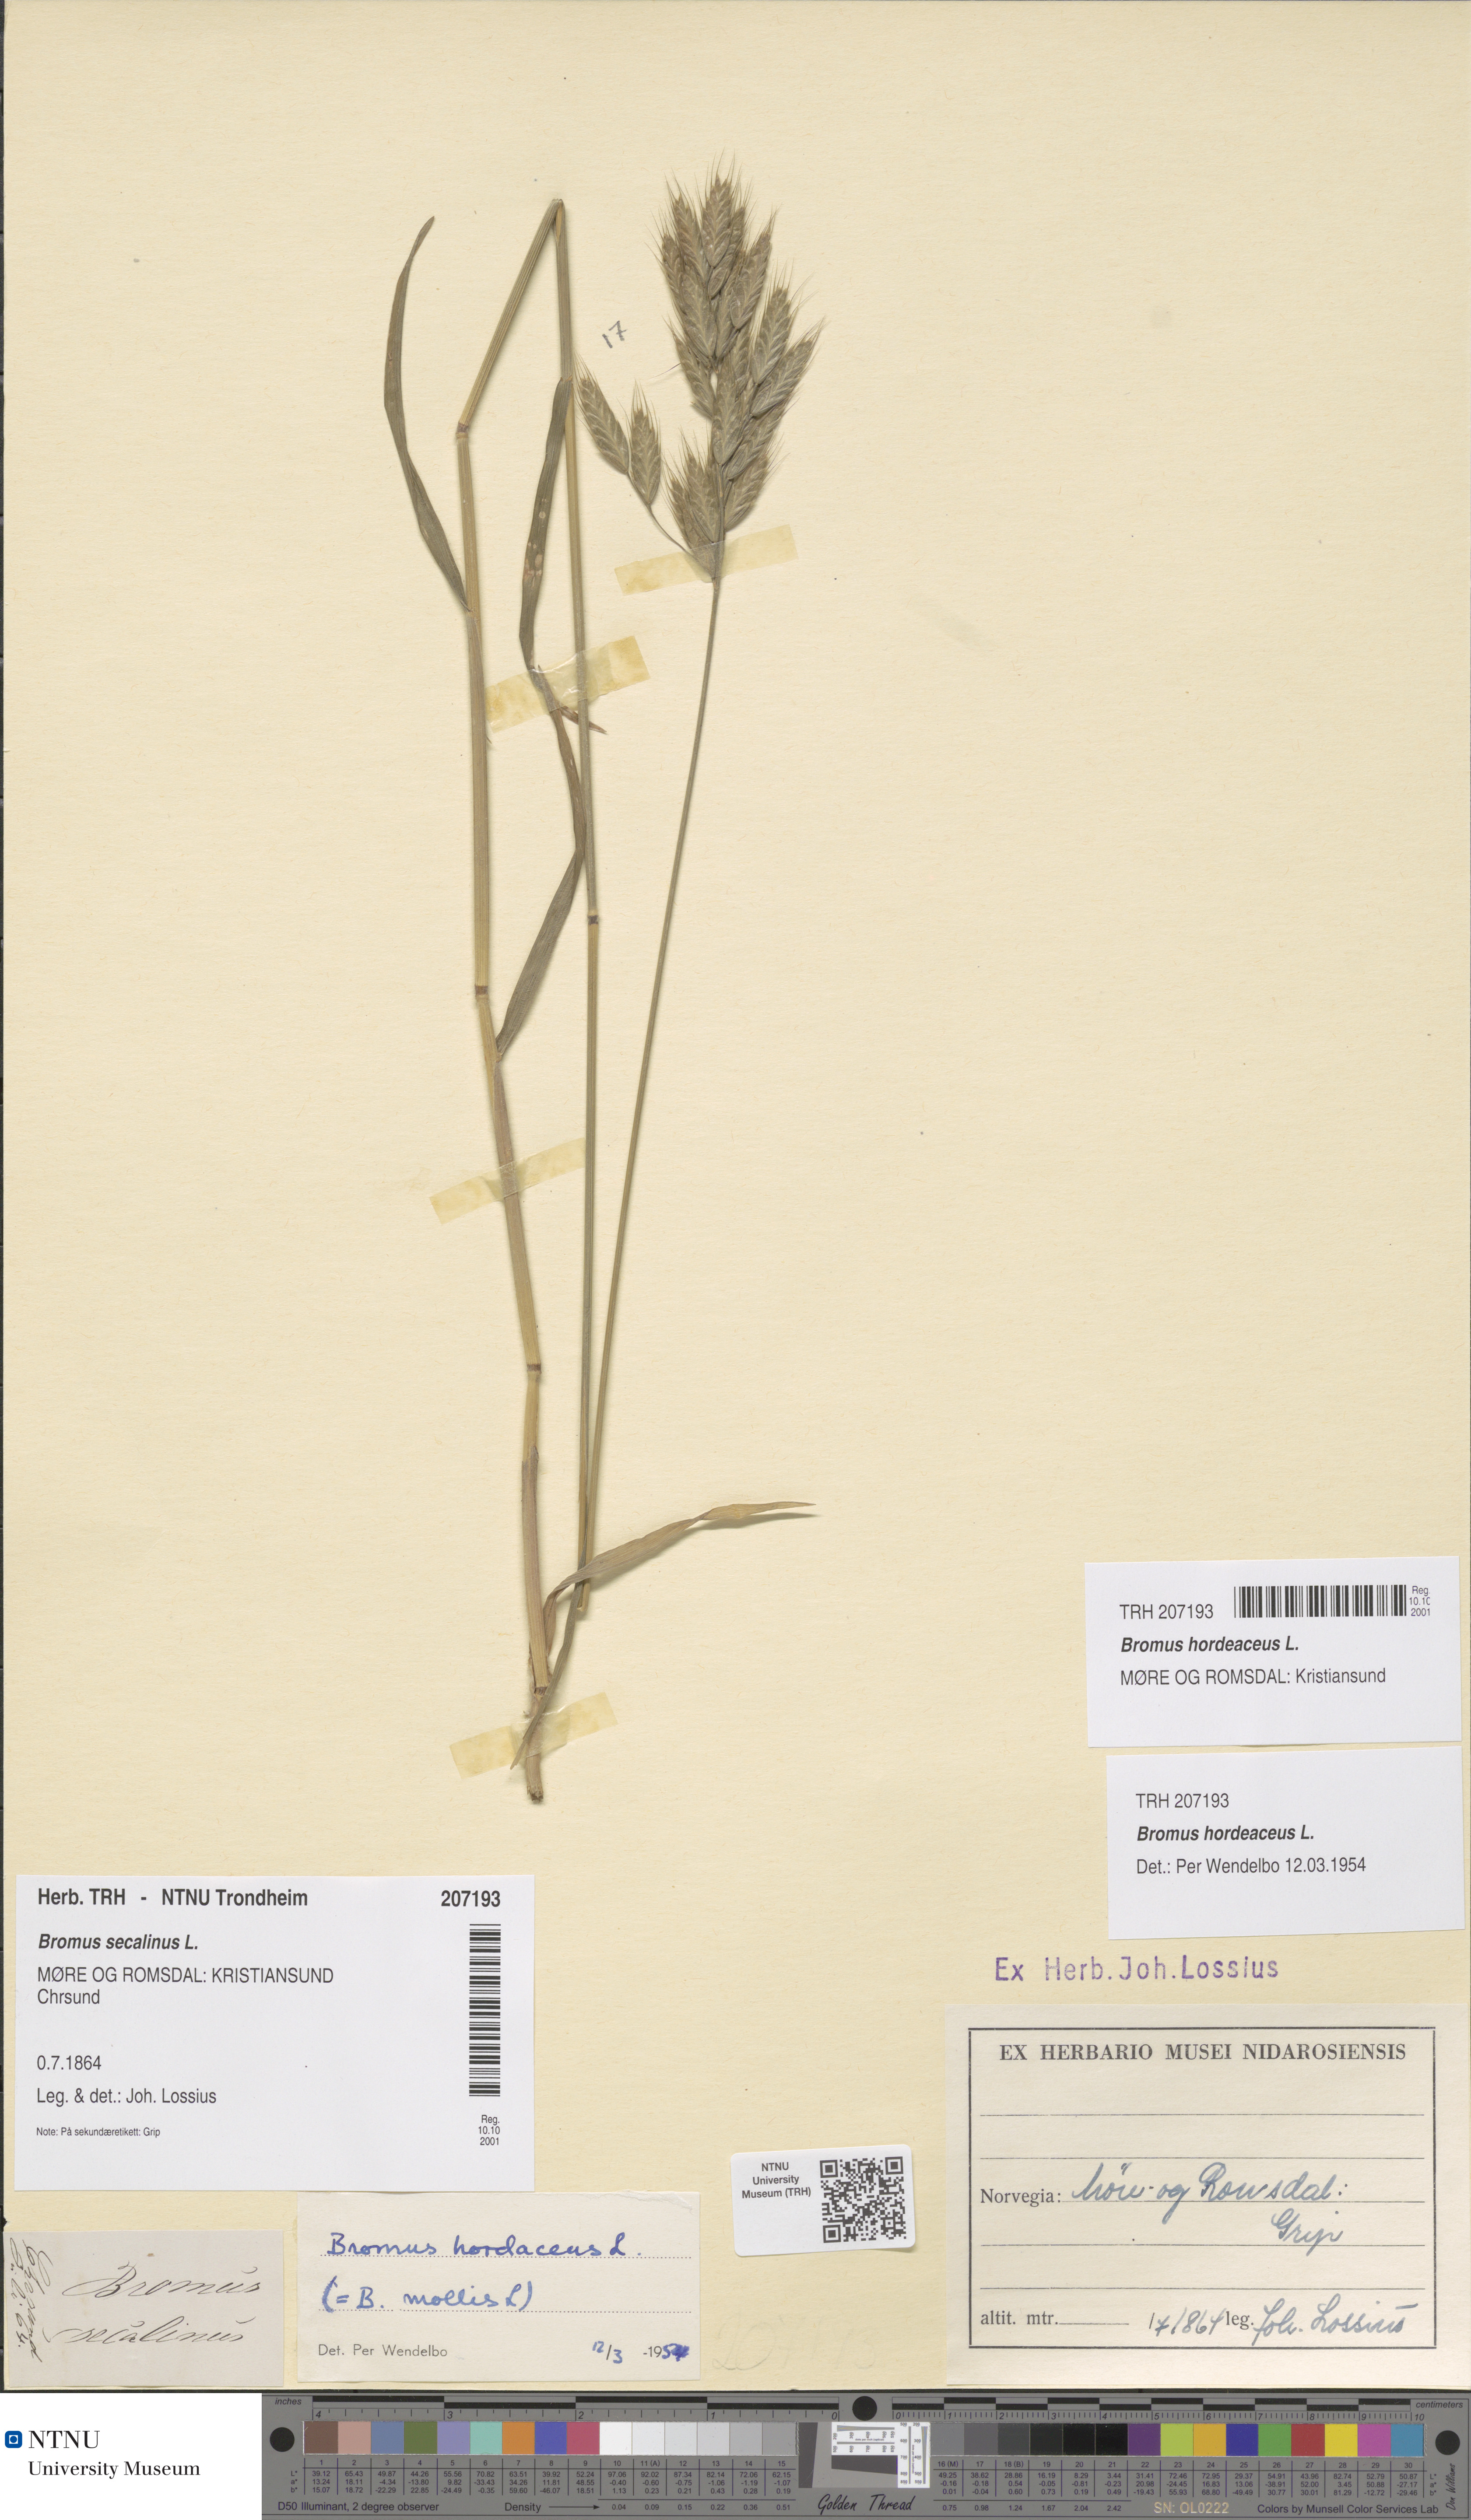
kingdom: Plantae
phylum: Tracheophyta
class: Liliopsida
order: Poales
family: Poaceae
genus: Bromus
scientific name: Bromus hordeaceus
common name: Soft brome
